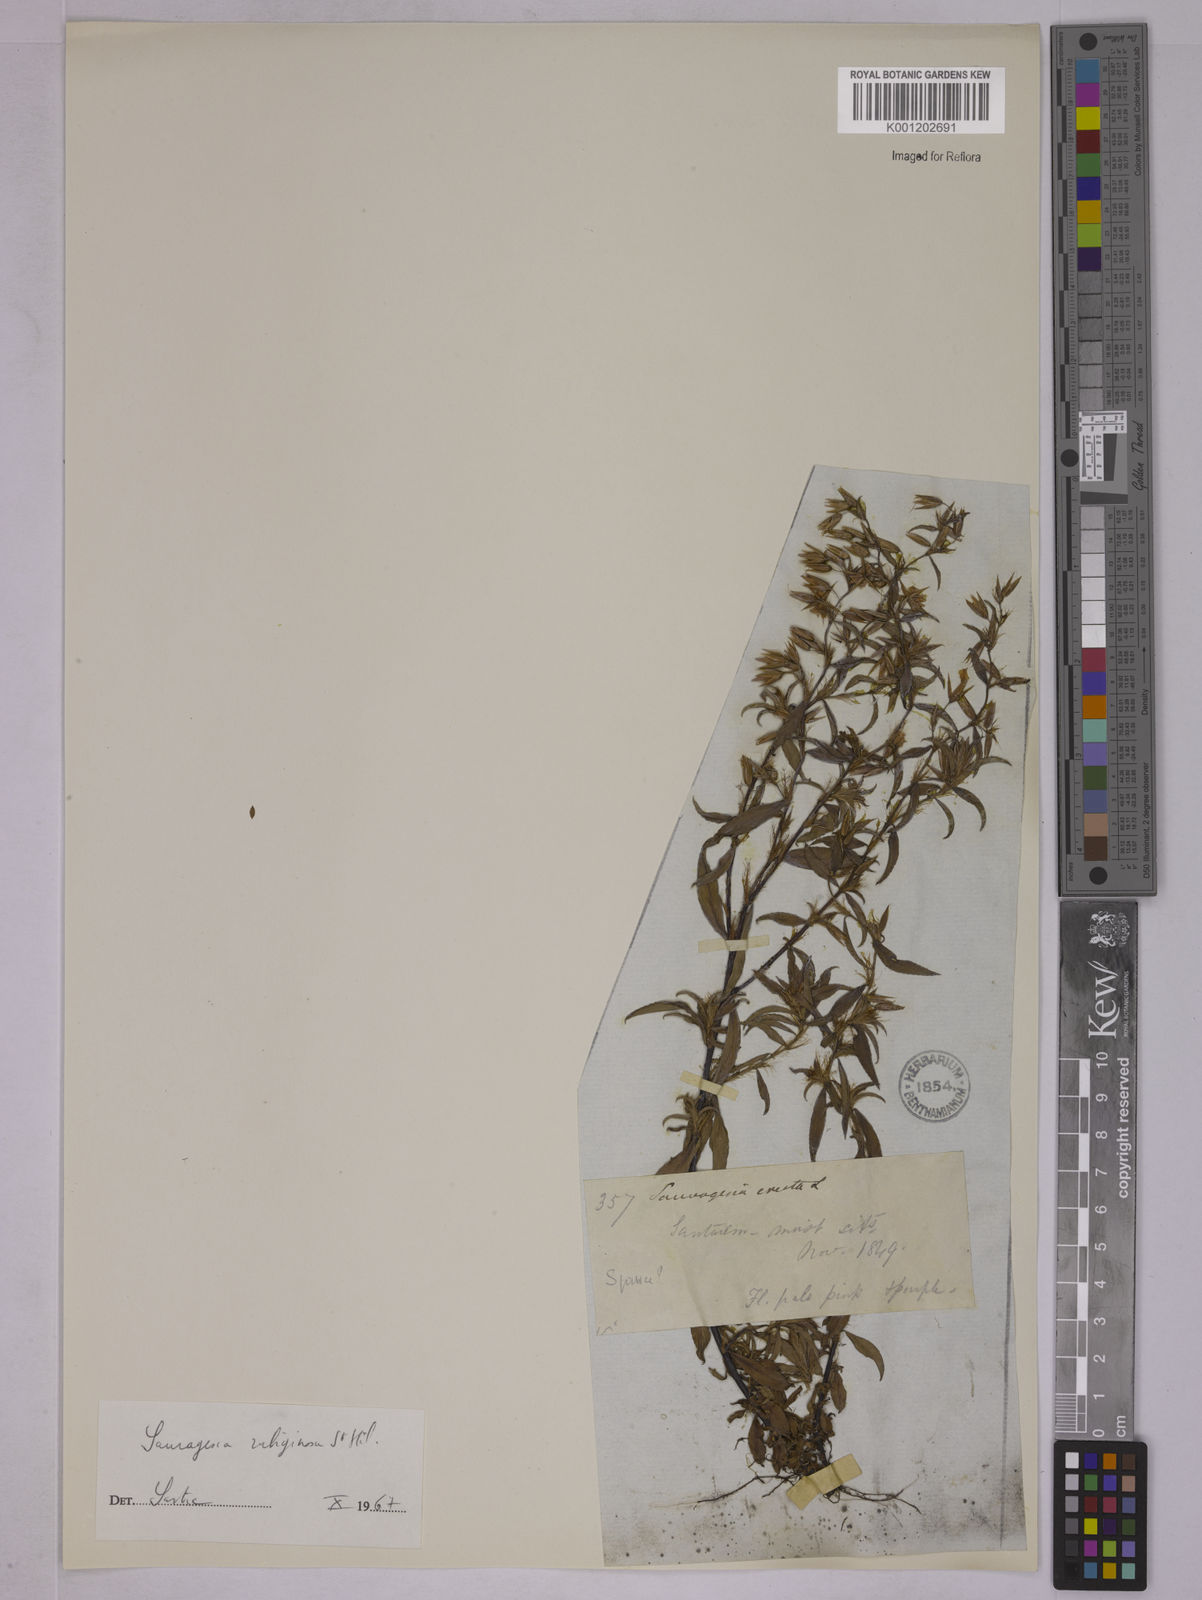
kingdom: Plantae
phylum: Tracheophyta
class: Magnoliopsida
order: Malpighiales
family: Ochnaceae
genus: Sauvagesia
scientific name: Sauvagesia erecta
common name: Creole tea
